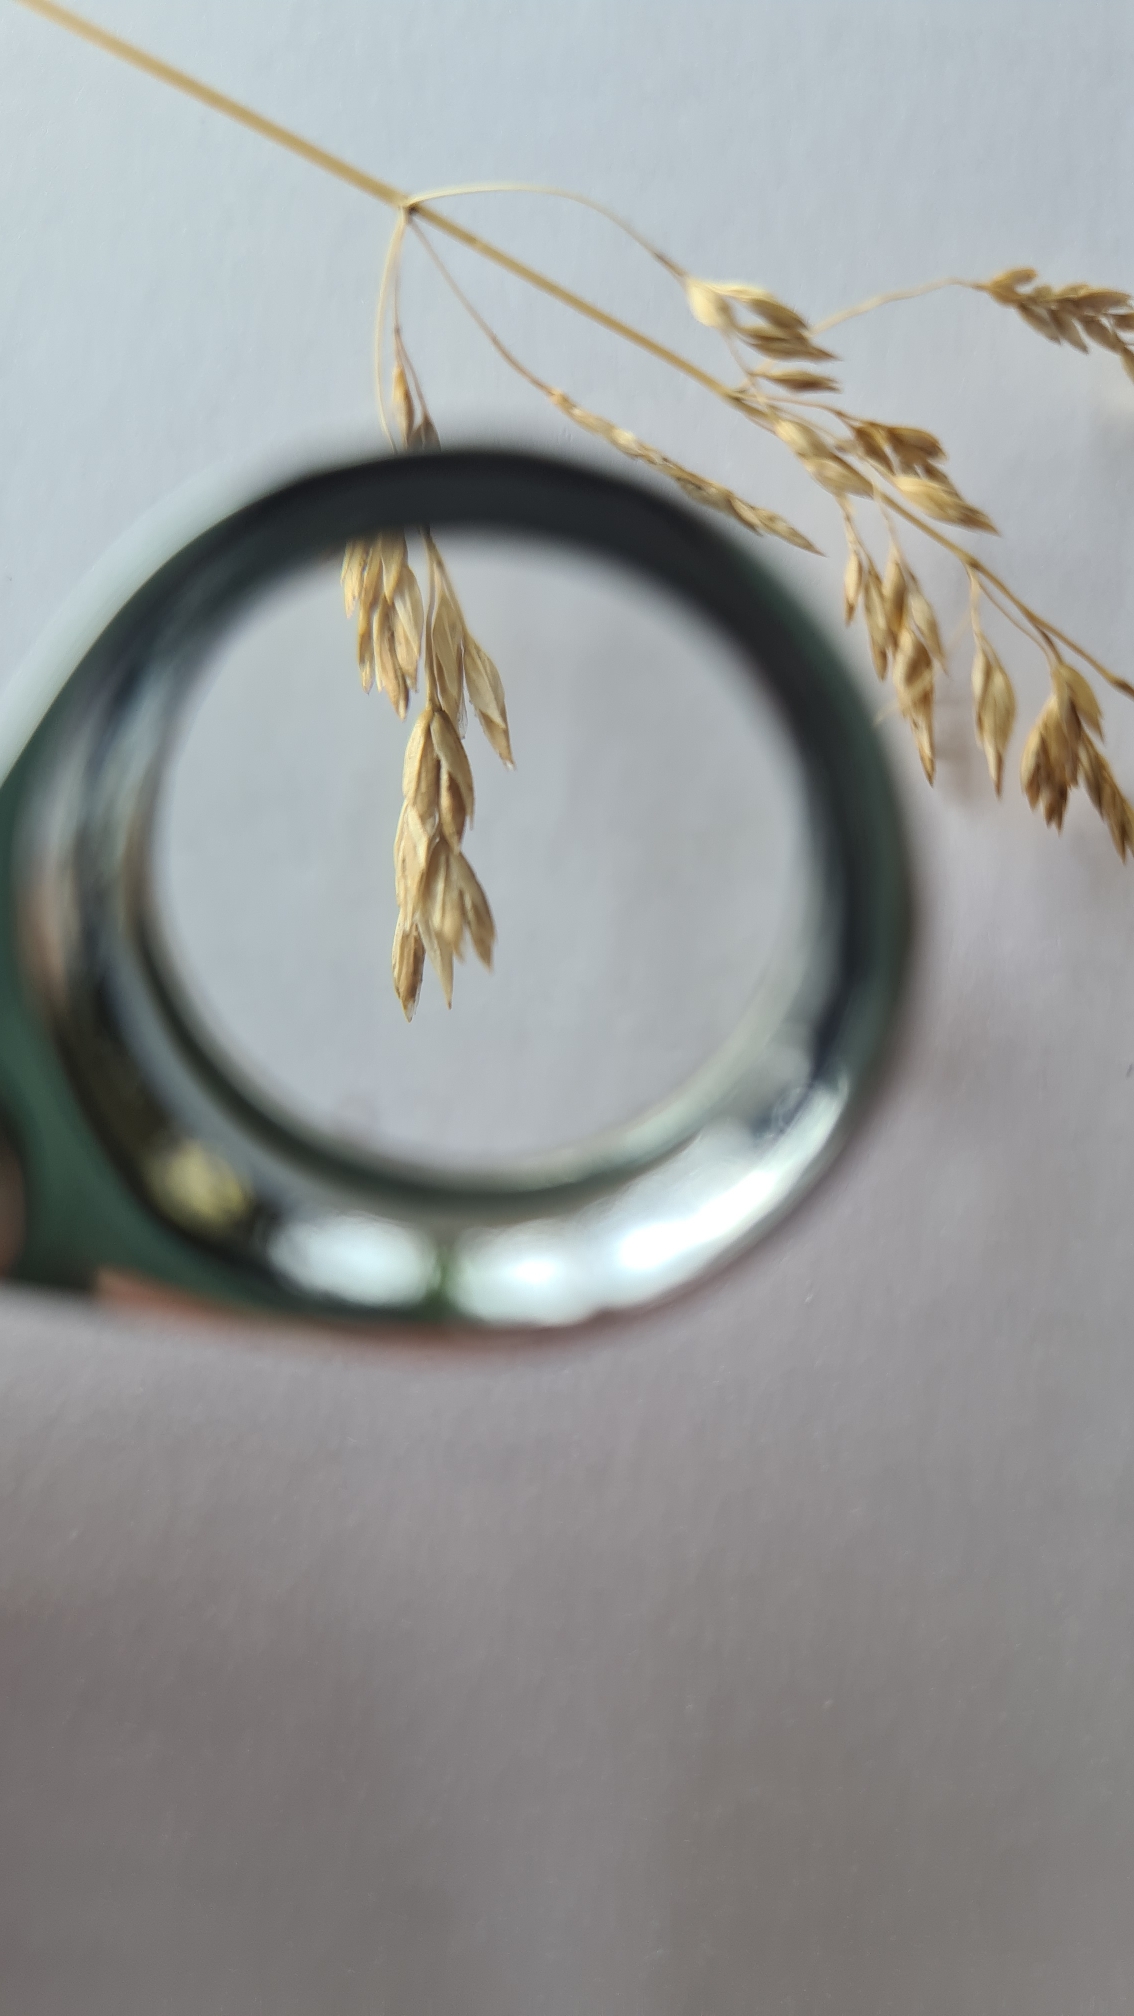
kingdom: Plantae
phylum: Tracheophyta
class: Liliopsida
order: Poales
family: Poaceae
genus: Poa
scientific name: Poa pratensis
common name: Eng-rapgræs
